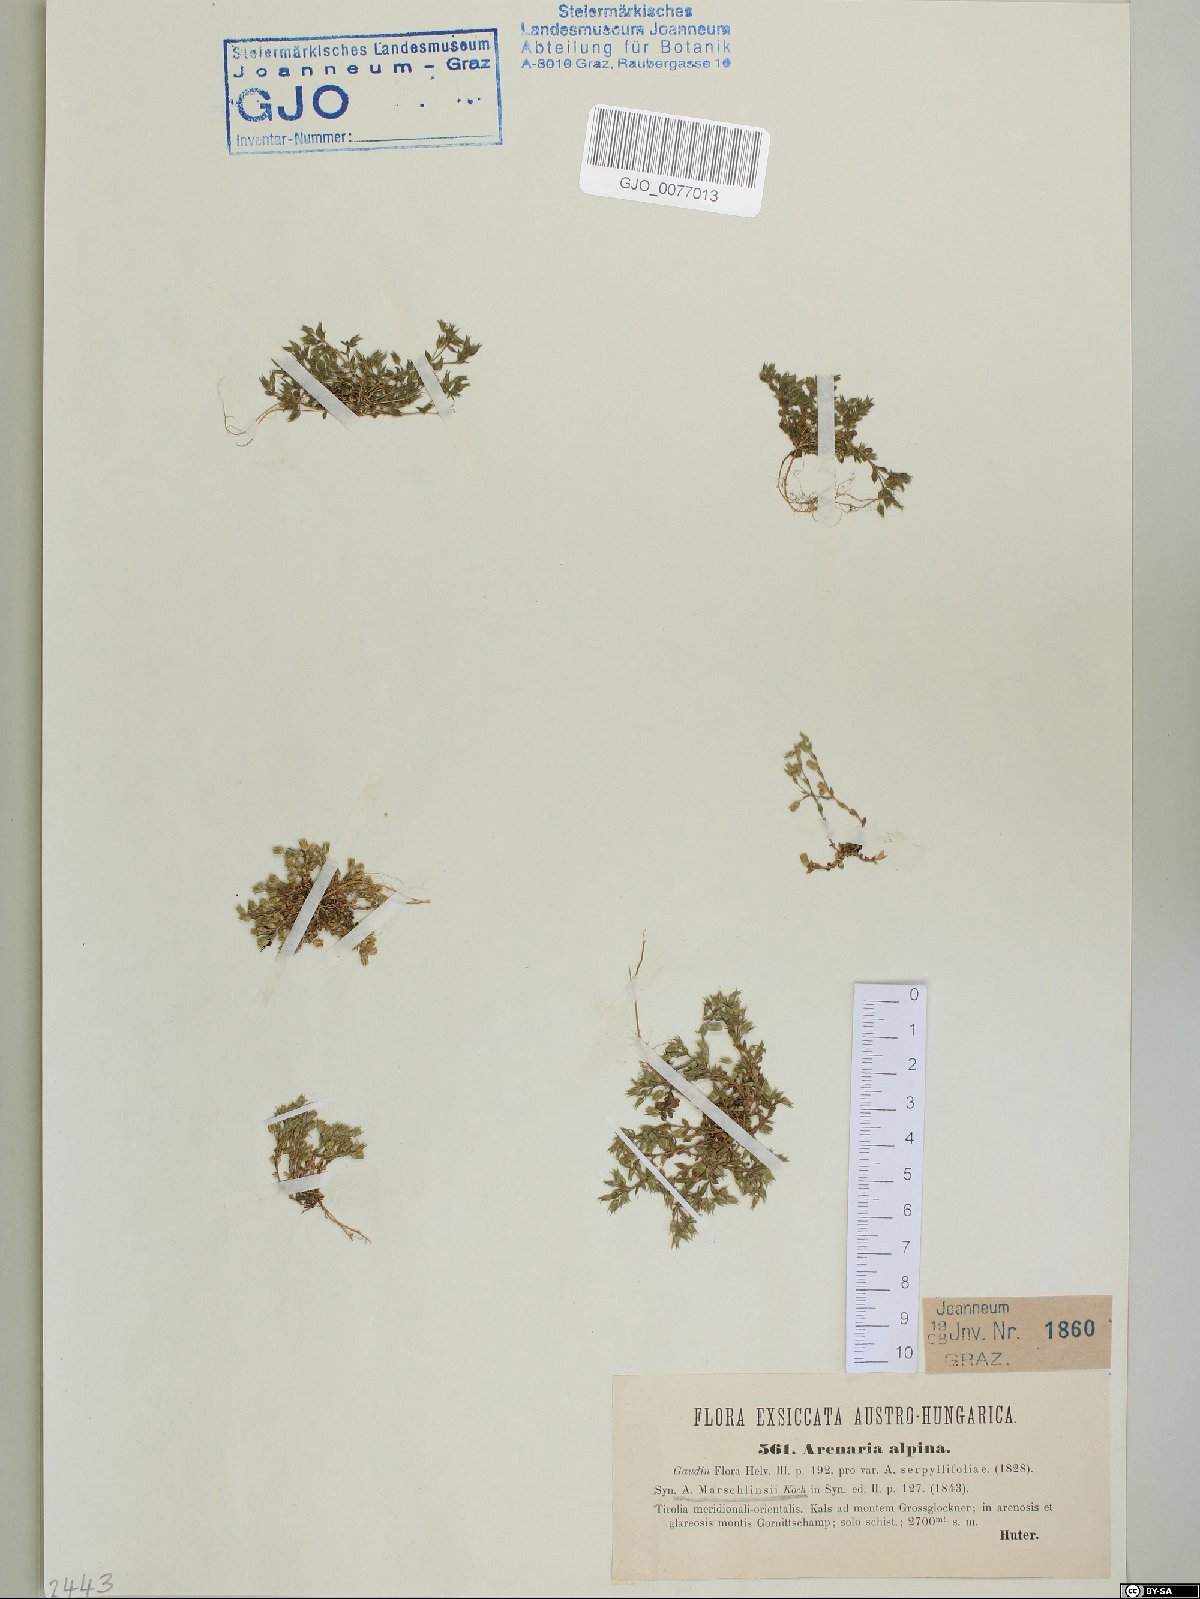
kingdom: Plantae
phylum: Tracheophyta
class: Magnoliopsida
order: Caryophyllales
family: Caryophyllaceae
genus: Arenaria
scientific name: Arenaria marschlinsii
